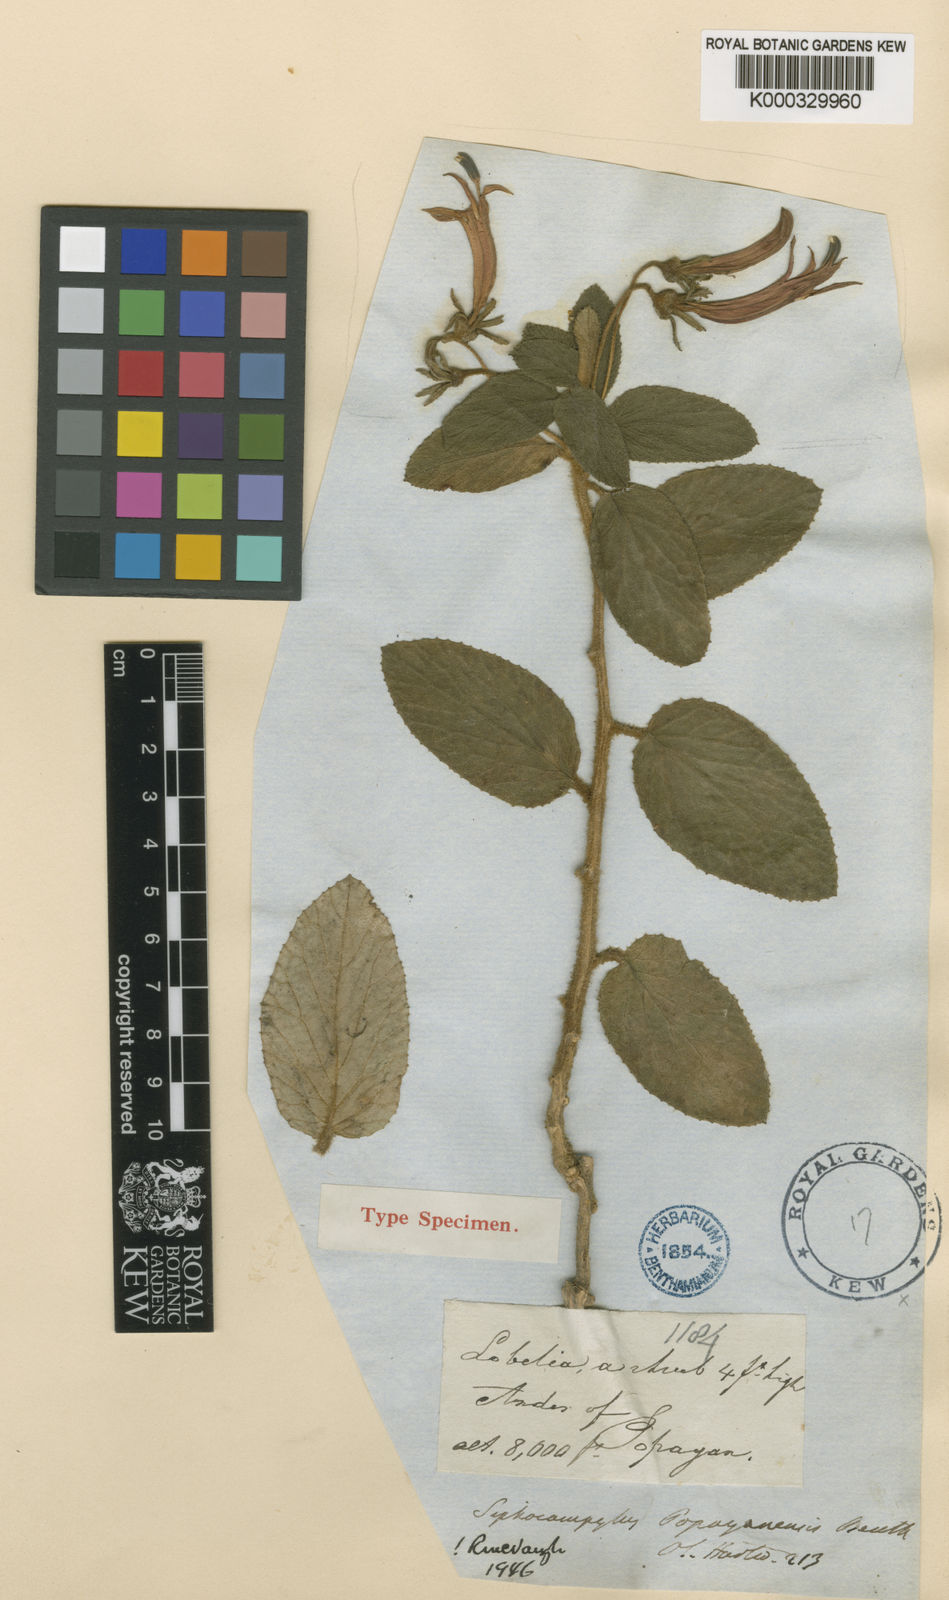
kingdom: Plantae
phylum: Tracheophyta
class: Magnoliopsida
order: Asterales
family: Campanulaceae
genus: Siphocampylus
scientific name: Siphocampylus popayanensis
